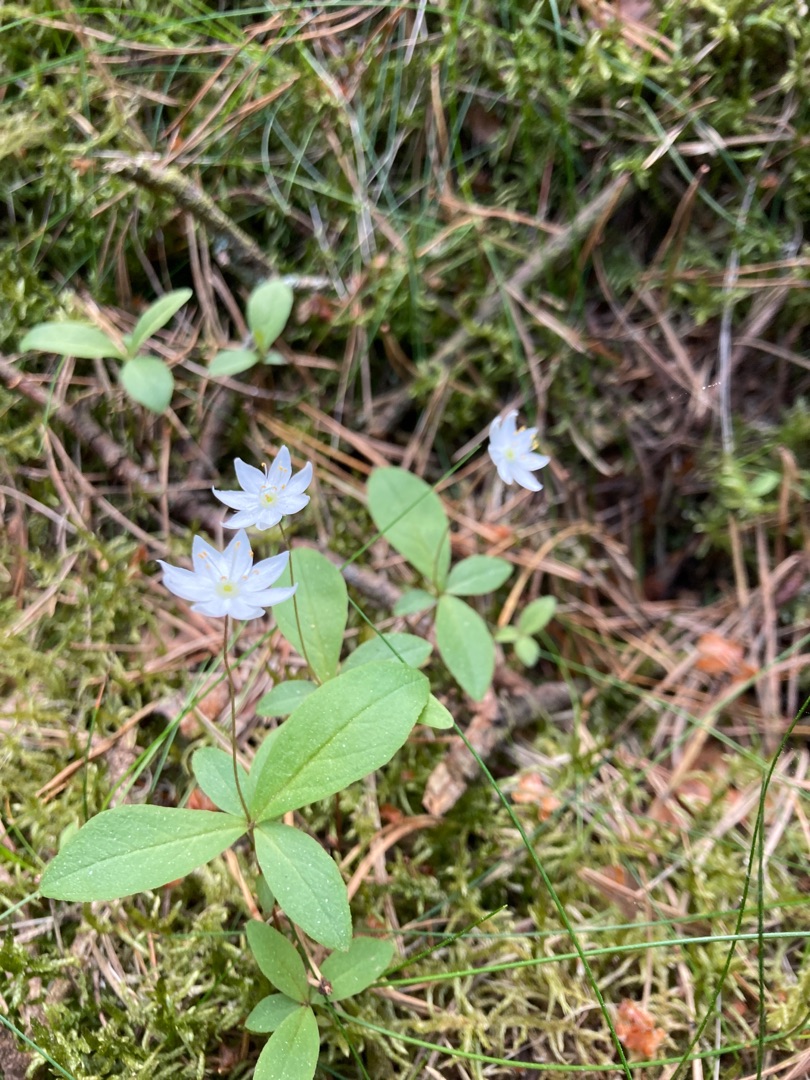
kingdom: Plantae
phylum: Tracheophyta
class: Magnoliopsida
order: Ericales
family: Primulaceae
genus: Lysimachia
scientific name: Lysimachia europaea
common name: Skovstjerne
